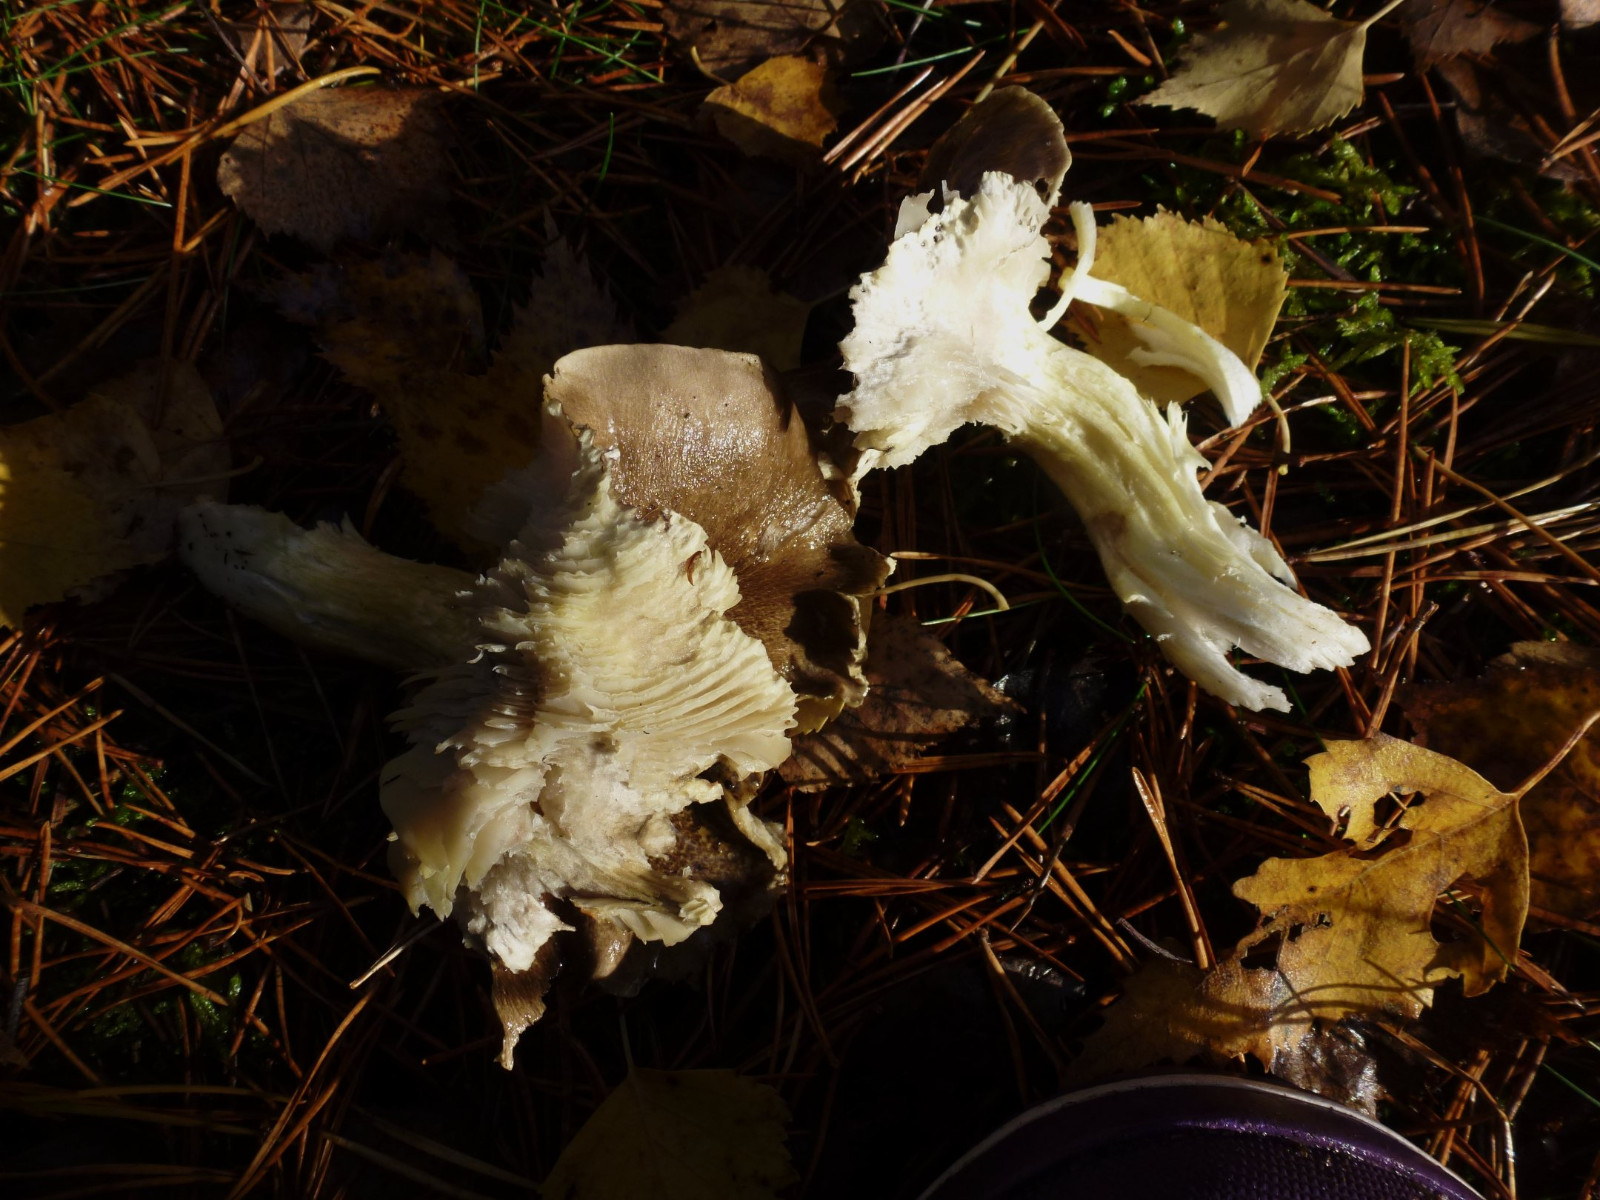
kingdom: Fungi
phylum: Basidiomycota
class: Agaricomycetes
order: Agaricales
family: Tricholomataceae
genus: Tricholoma
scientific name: Tricholoma portentosum
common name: grå ridderhat
